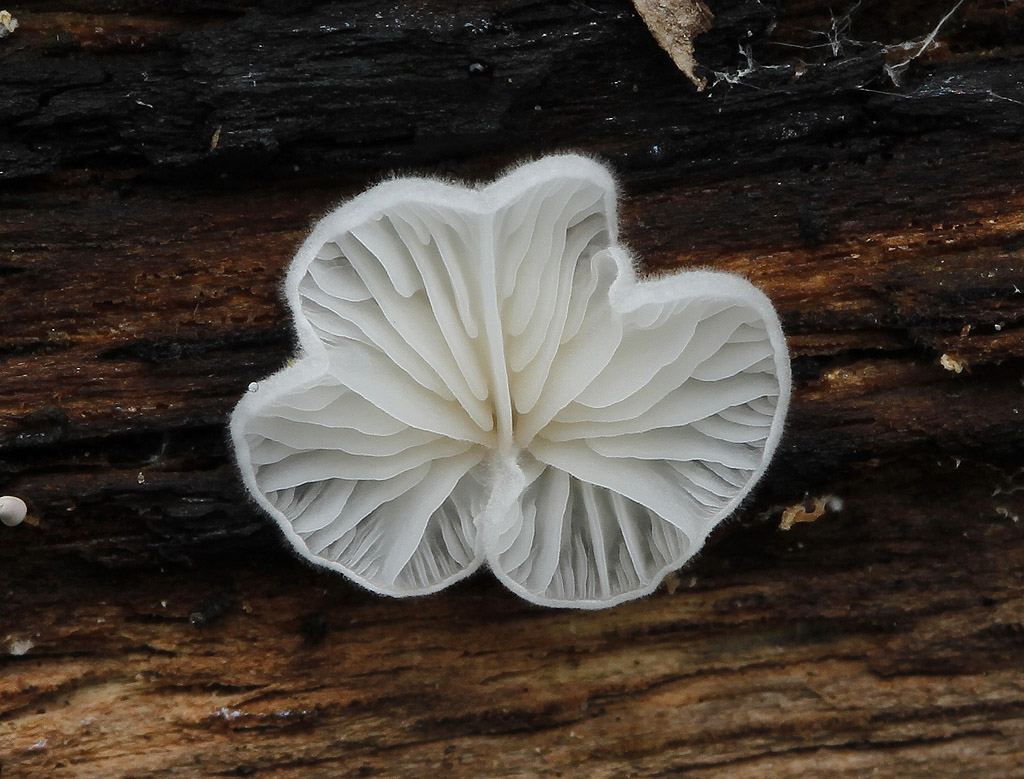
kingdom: Fungi
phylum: Basidiomycota
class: Agaricomycetes
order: Agaricales
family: Entolomataceae
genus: Clitopilus
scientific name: Clitopilus hobsonii
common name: Miller's oysterling
